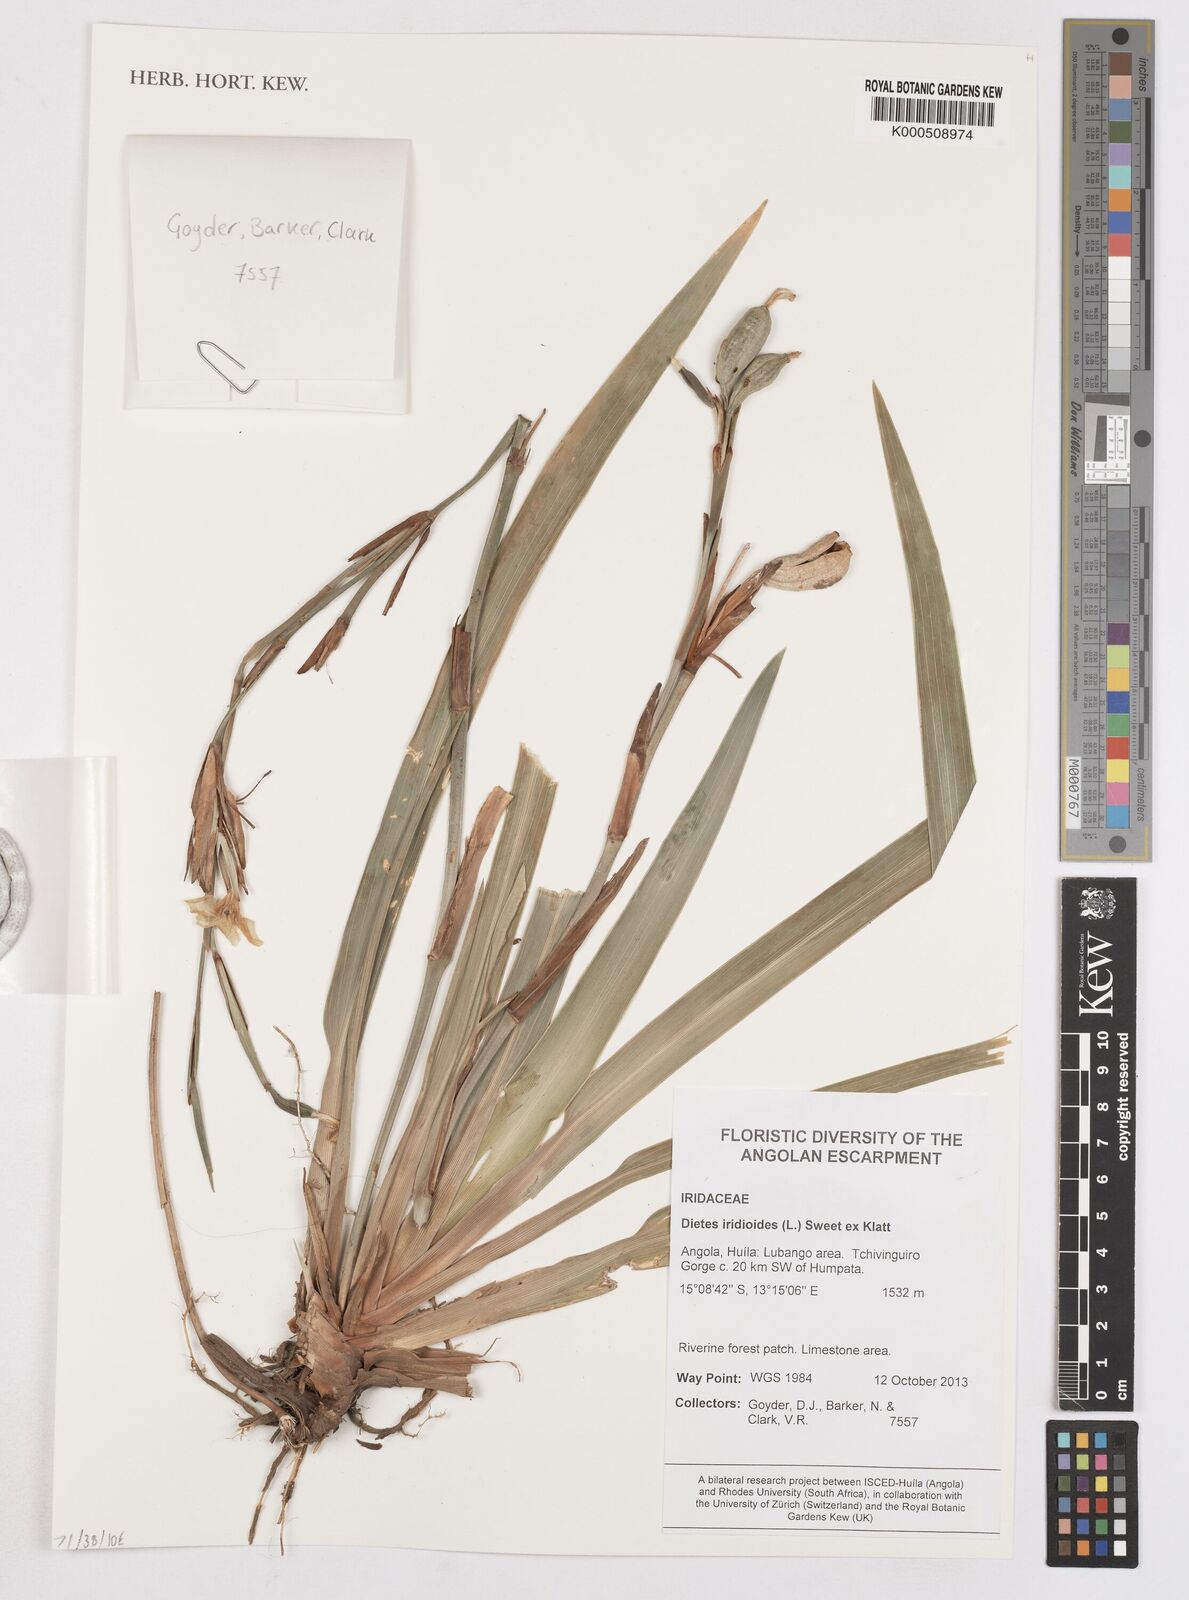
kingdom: Plantae
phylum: Tracheophyta
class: Liliopsida
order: Asparagales
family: Iridaceae
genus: Dietes
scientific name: Dietes iridioides
